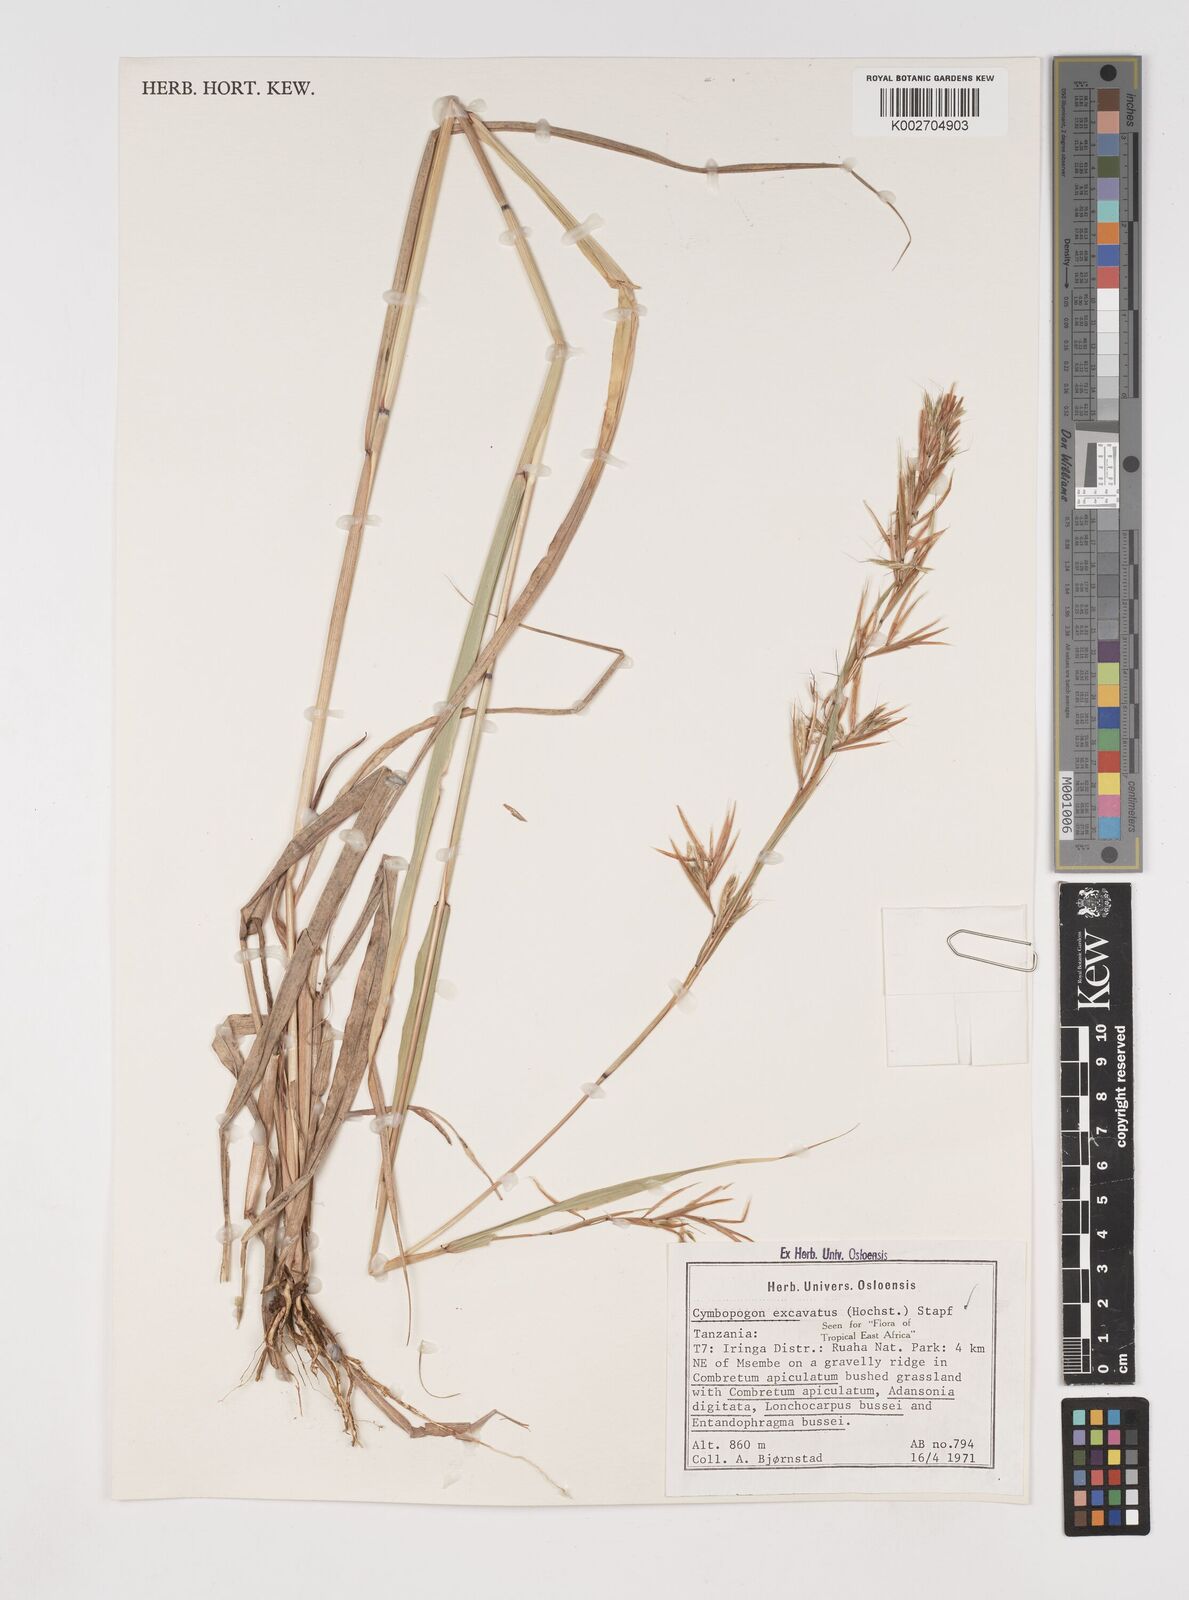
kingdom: Plantae
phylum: Tracheophyta
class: Liliopsida
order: Poales
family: Poaceae
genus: Cymbopogon
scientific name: Cymbopogon caesius
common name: Kachi grass
